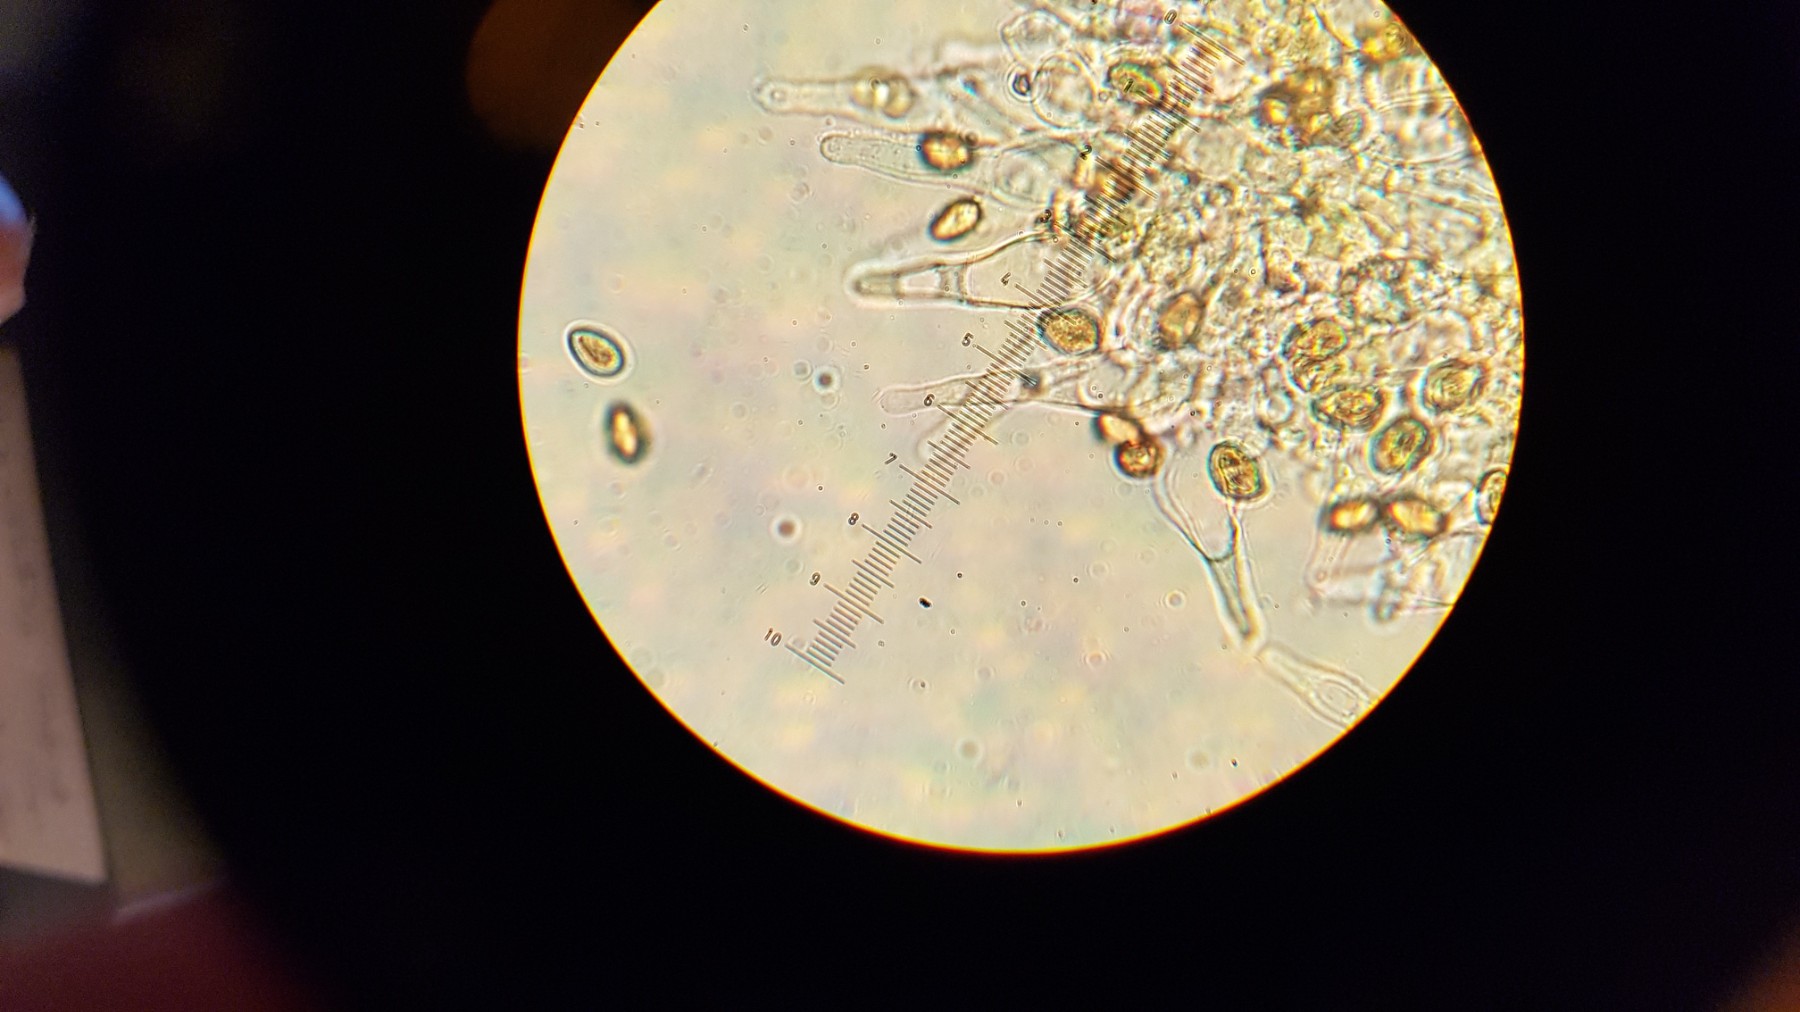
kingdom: Fungi
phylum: Basidiomycota
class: Agaricomycetes
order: Agaricales
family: Hymenogastraceae
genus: Galerina
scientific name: Galerina marginata
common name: randbæltet hjelmhat
